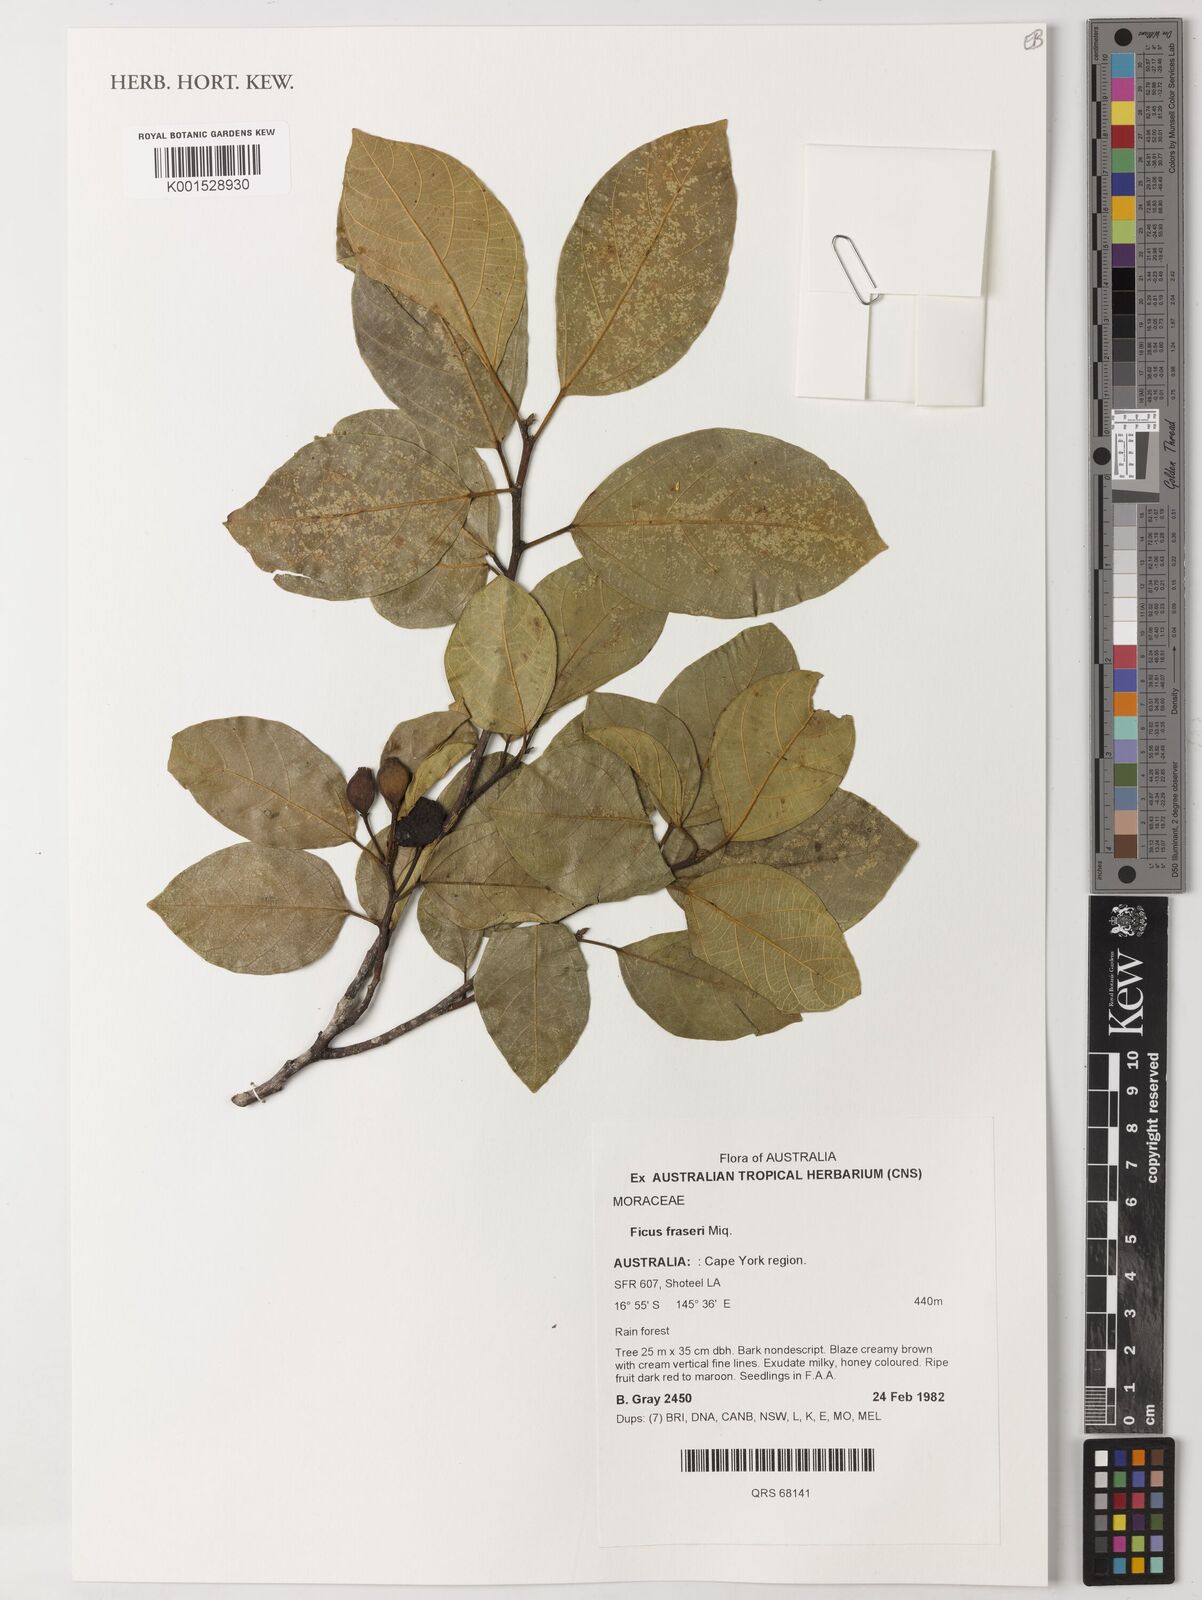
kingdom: Plantae
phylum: Tracheophyta
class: Magnoliopsida
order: Rosales
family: Moraceae
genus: Ficus
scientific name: Ficus fraseri
